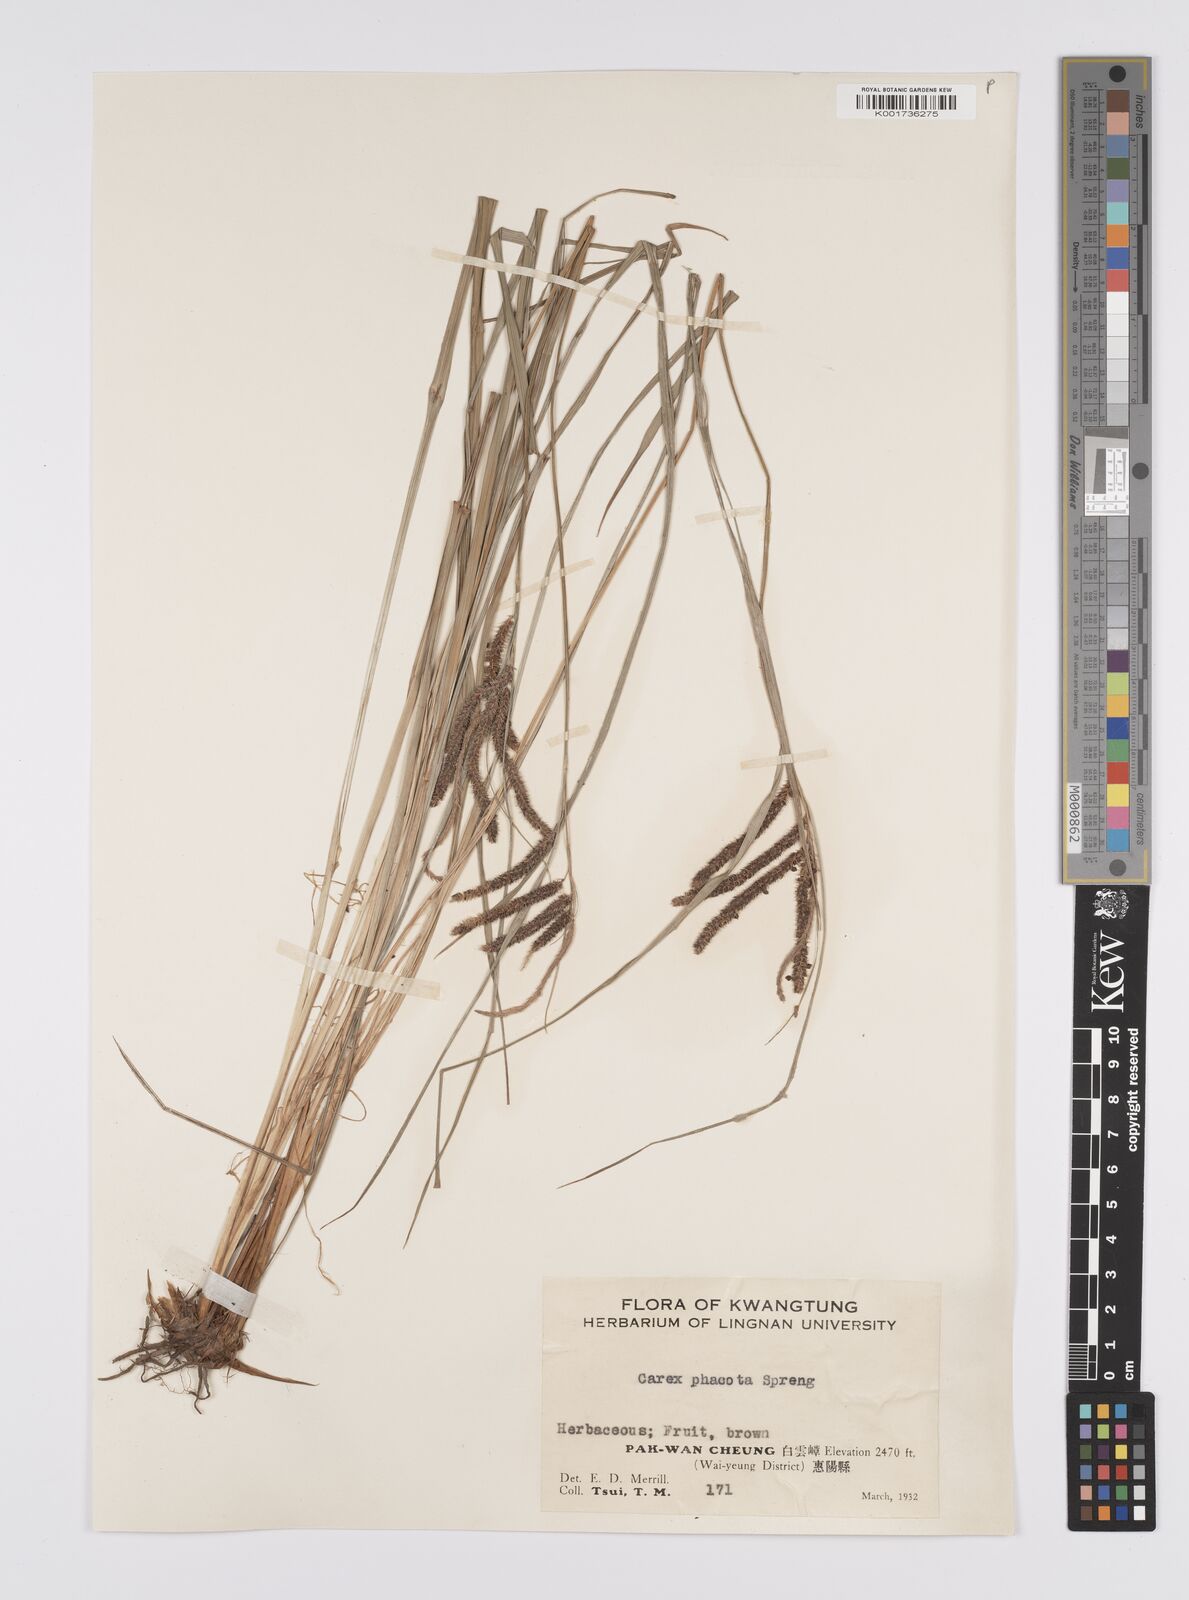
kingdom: Plantae
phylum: Tracheophyta
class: Liliopsida
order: Poales
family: Cyperaceae
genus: Carex
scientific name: Carex phacota
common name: Lakeshore sedge
